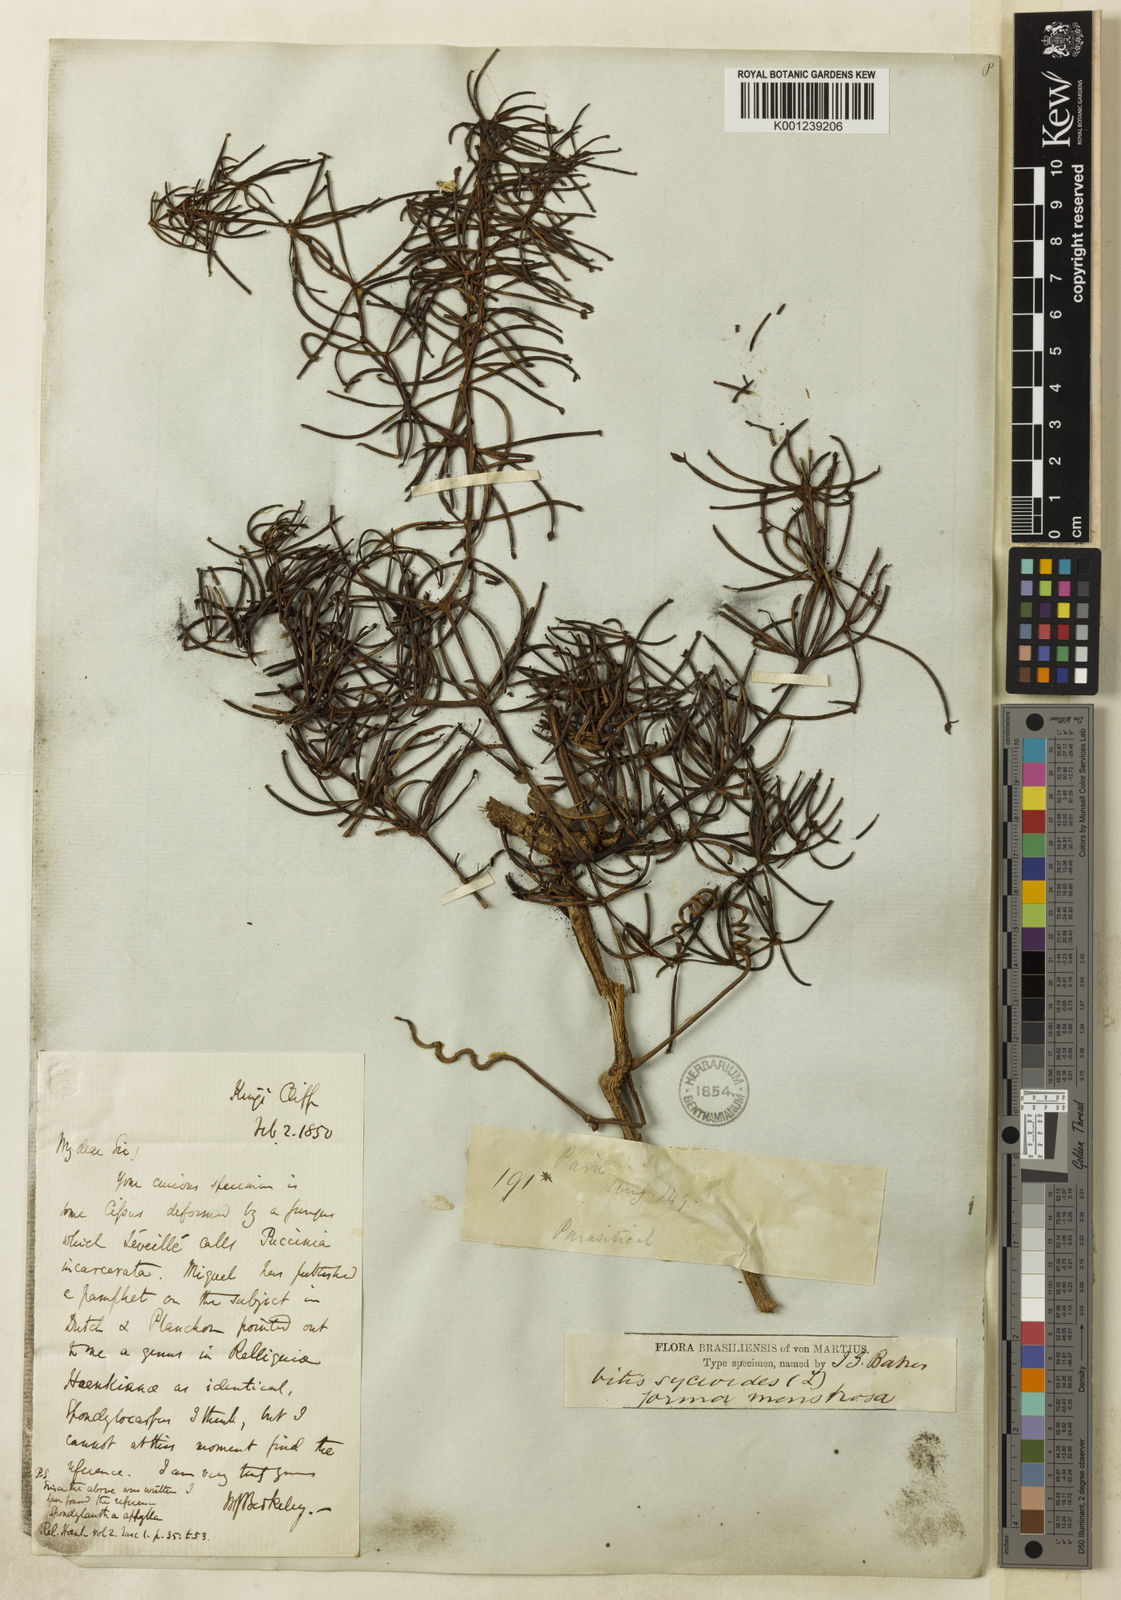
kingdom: Plantae
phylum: Tracheophyta
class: Magnoliopsida
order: Vitales
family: Vitaceae
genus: Cissus
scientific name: Cissus verticillata
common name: Princess vine
